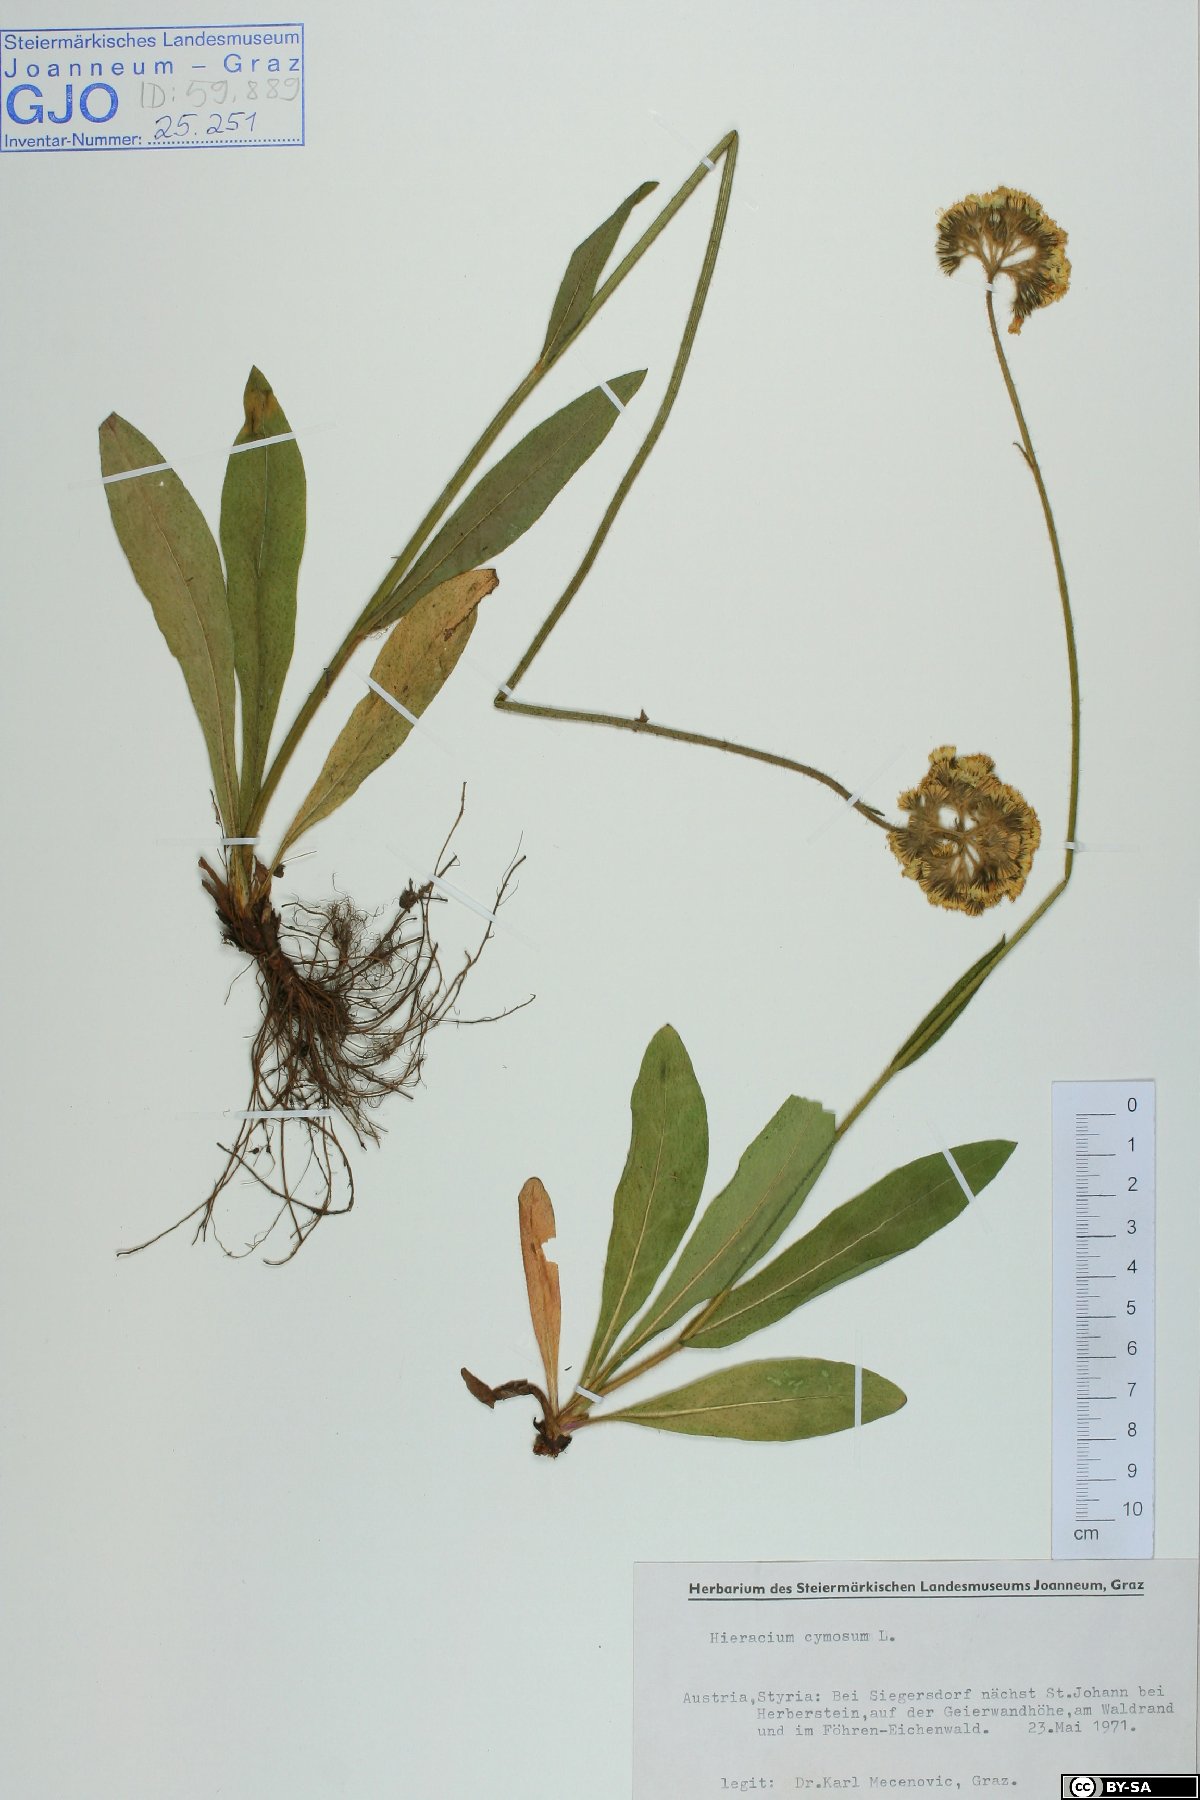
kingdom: Plantae
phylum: Tracheophyta
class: Magnoliopsida
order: Asterales
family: Asteraceae
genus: Pilosella
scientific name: Pilosella cymosa
